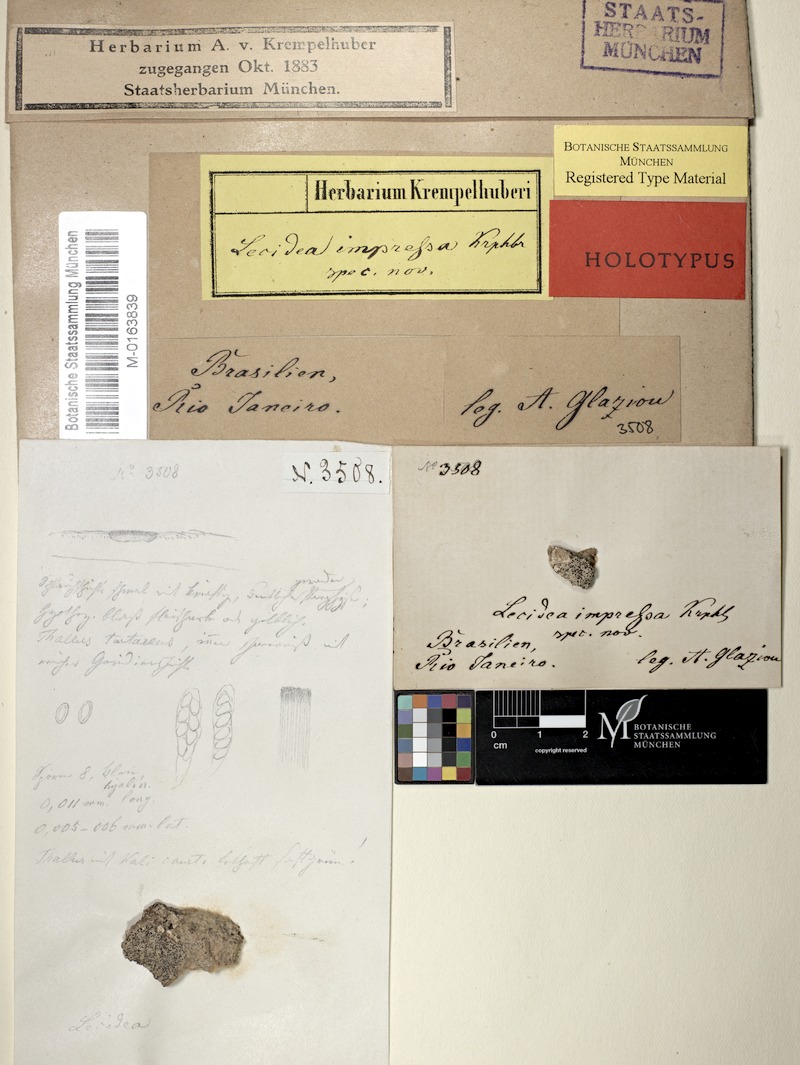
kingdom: Fungi
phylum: Ascomycota
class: Lecanoromycetes
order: Lecanorales
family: Lecanoraceae
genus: Lecanora
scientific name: Lecanora impressa
